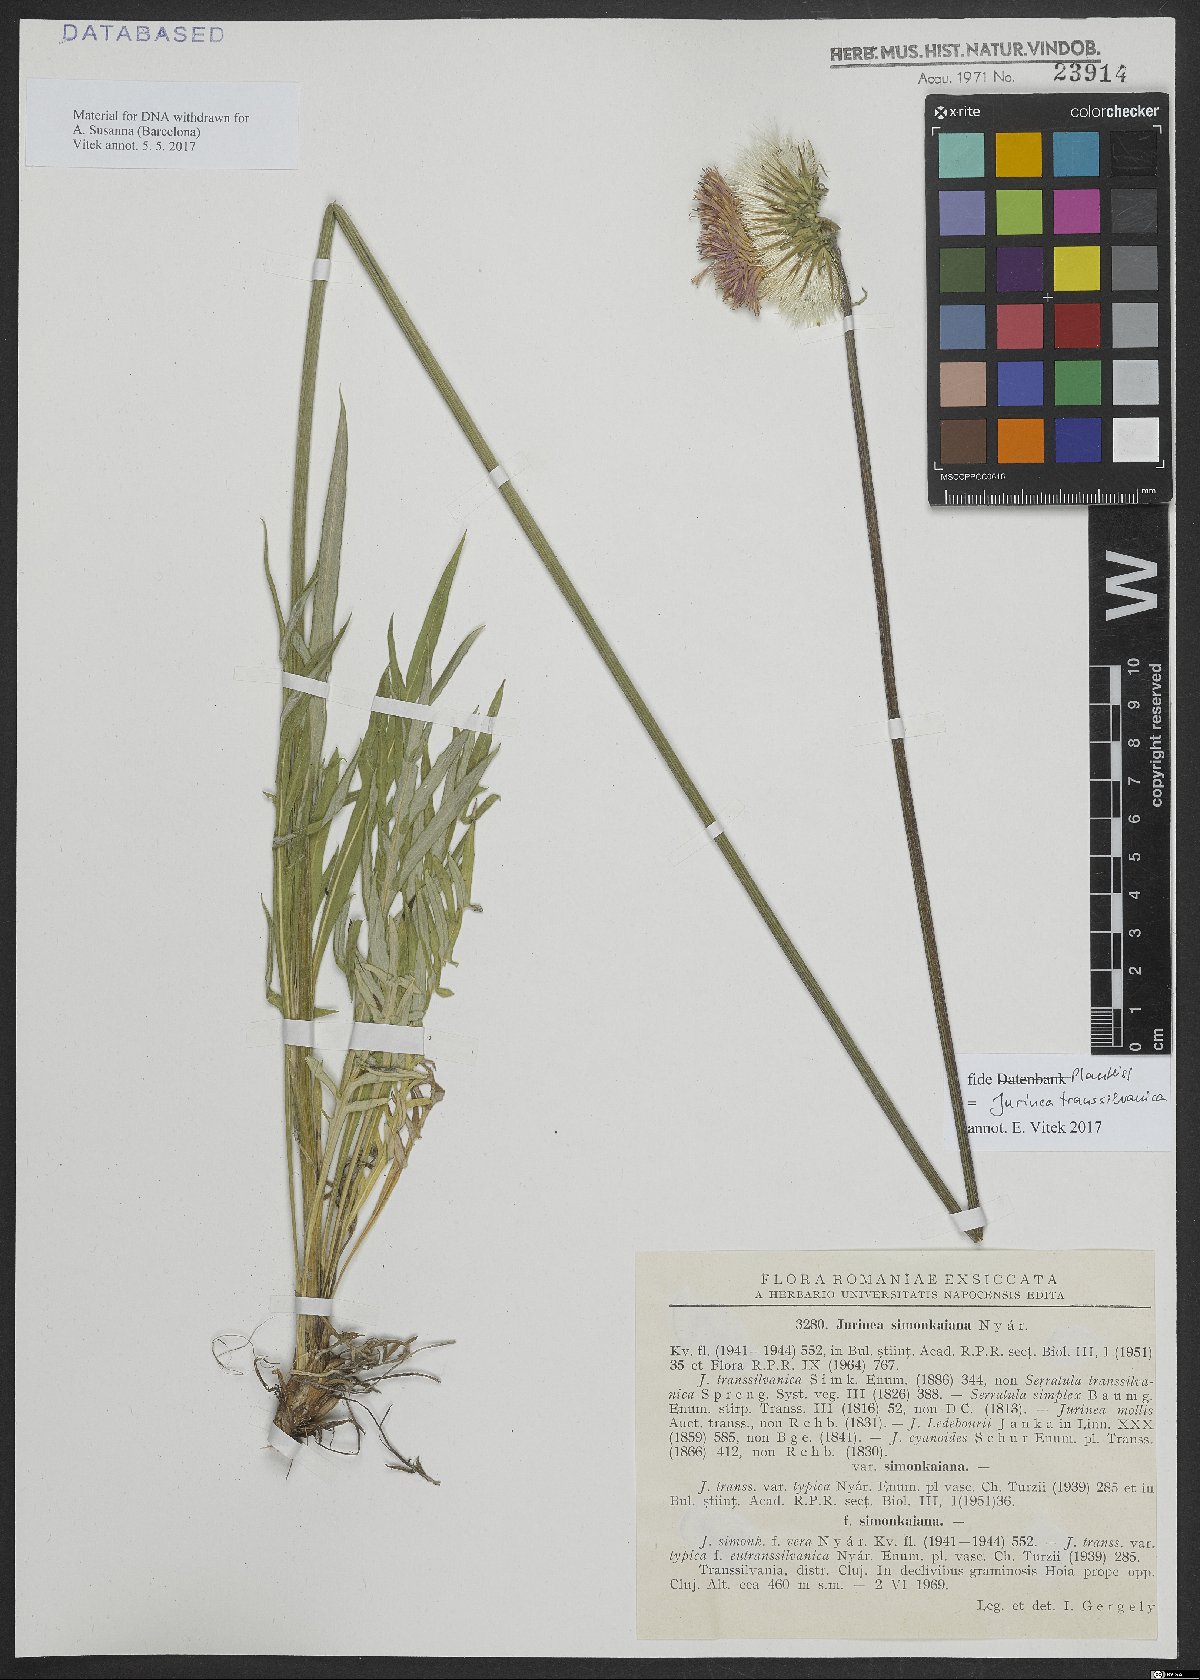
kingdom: Plantae
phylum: Tracheophyta
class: Magnoliopsida
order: Asterales
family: Asteraceae
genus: Jurinea
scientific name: Jurinea transsylvanica
